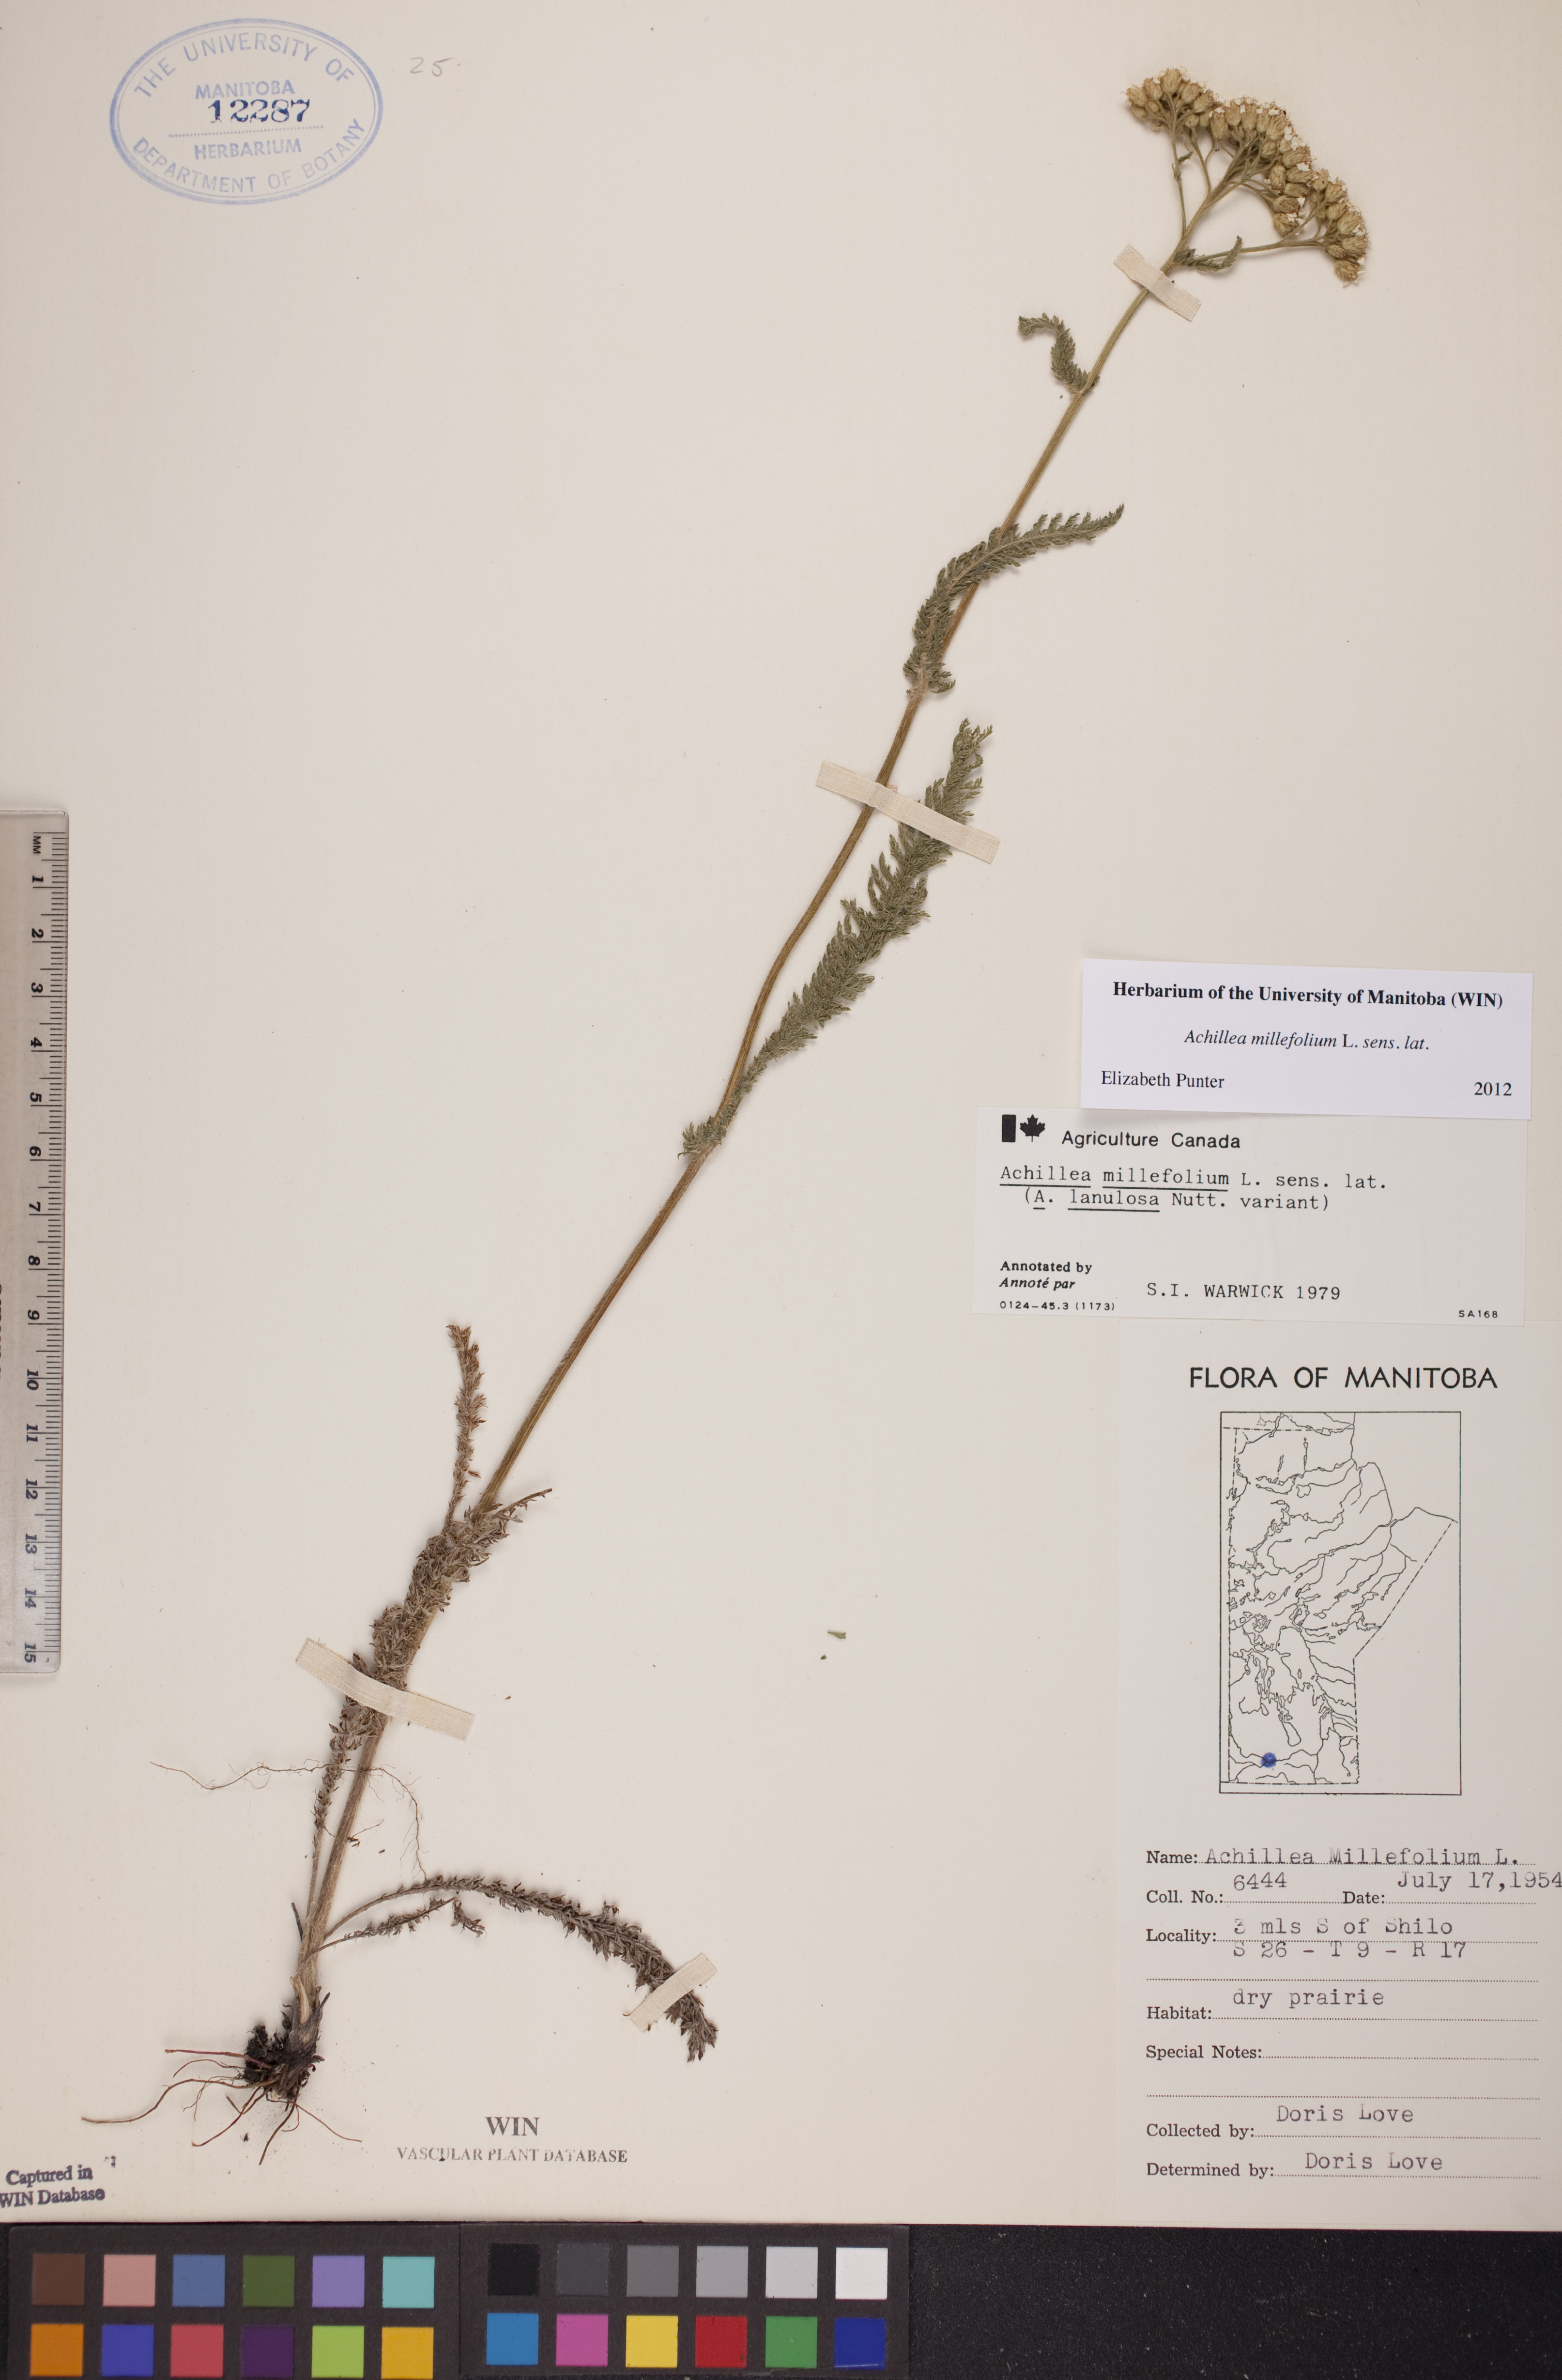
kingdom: Plantae
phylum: Tracheophyta
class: Magnoliopsida
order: Asterales
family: Asteraceae
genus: Achillea
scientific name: Achillea millefolium
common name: Yarrow
